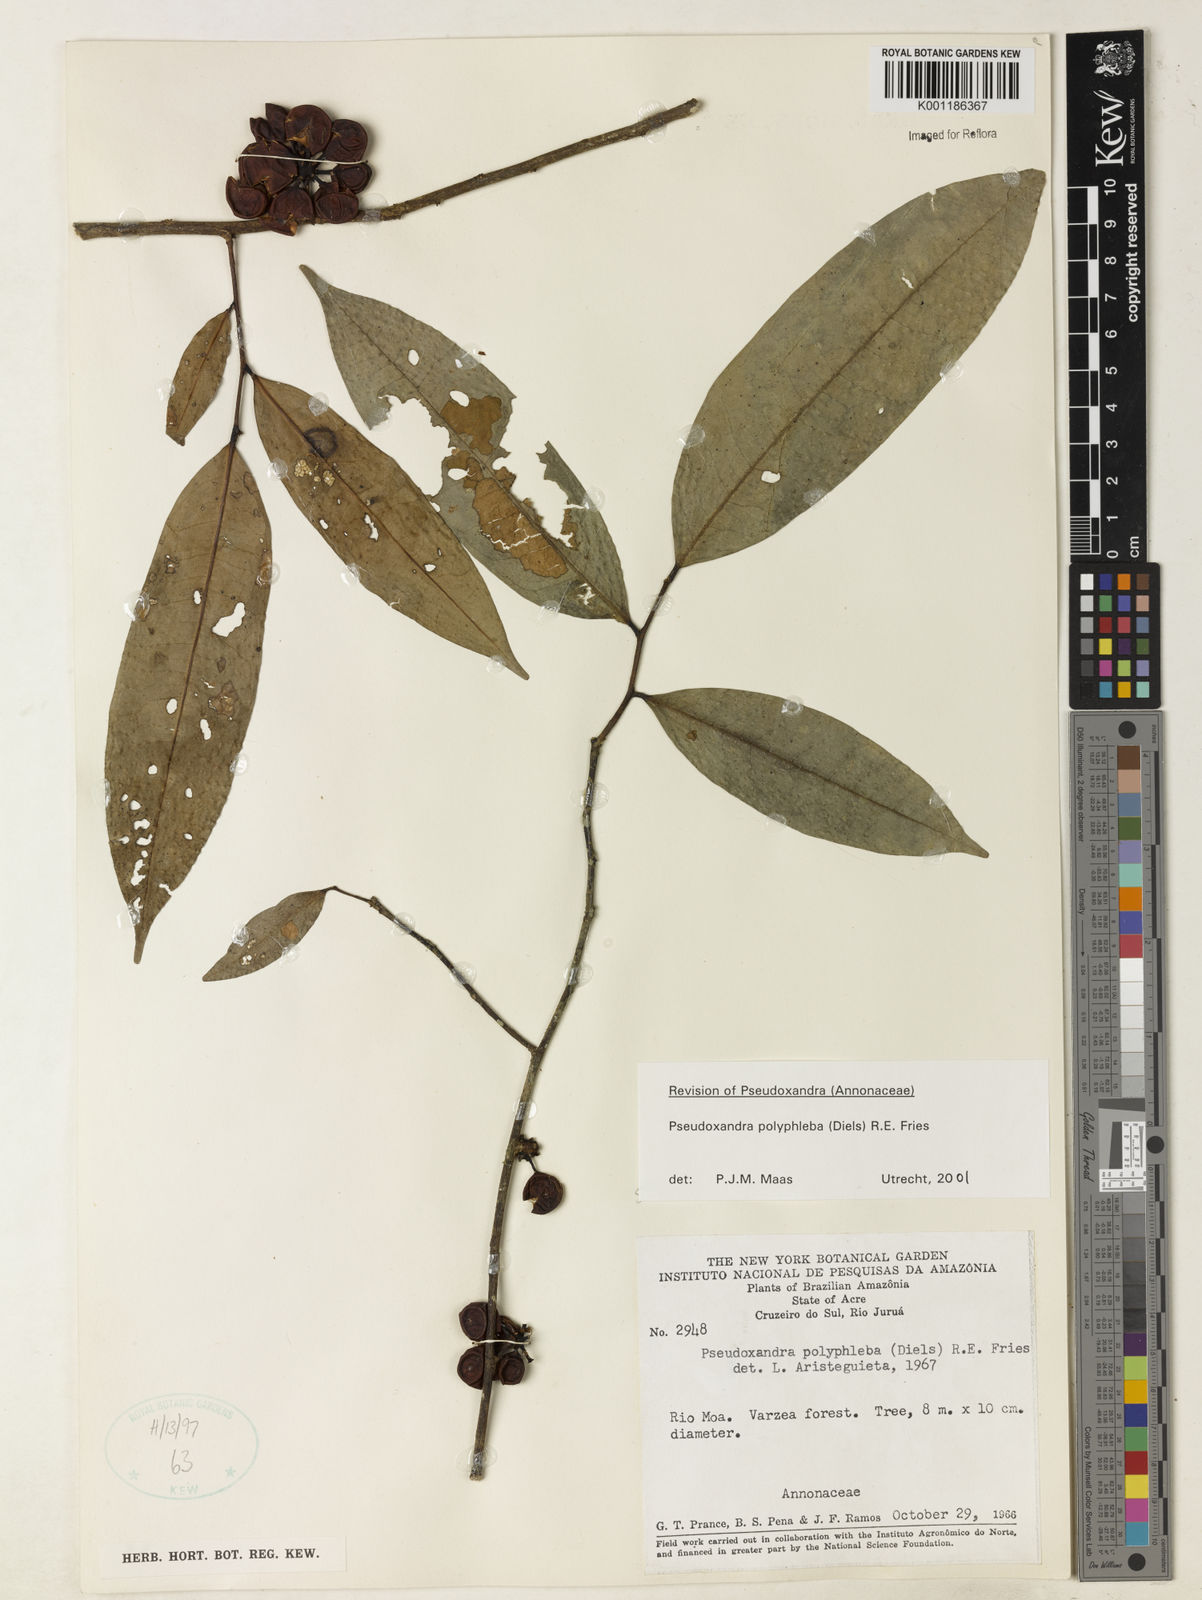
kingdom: Plantae
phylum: Tracheophyta
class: Magnoliopsida
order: Magnoliales
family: Annonaceae
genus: Pseudoxandra
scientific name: Pseudoxandra polyphleba
